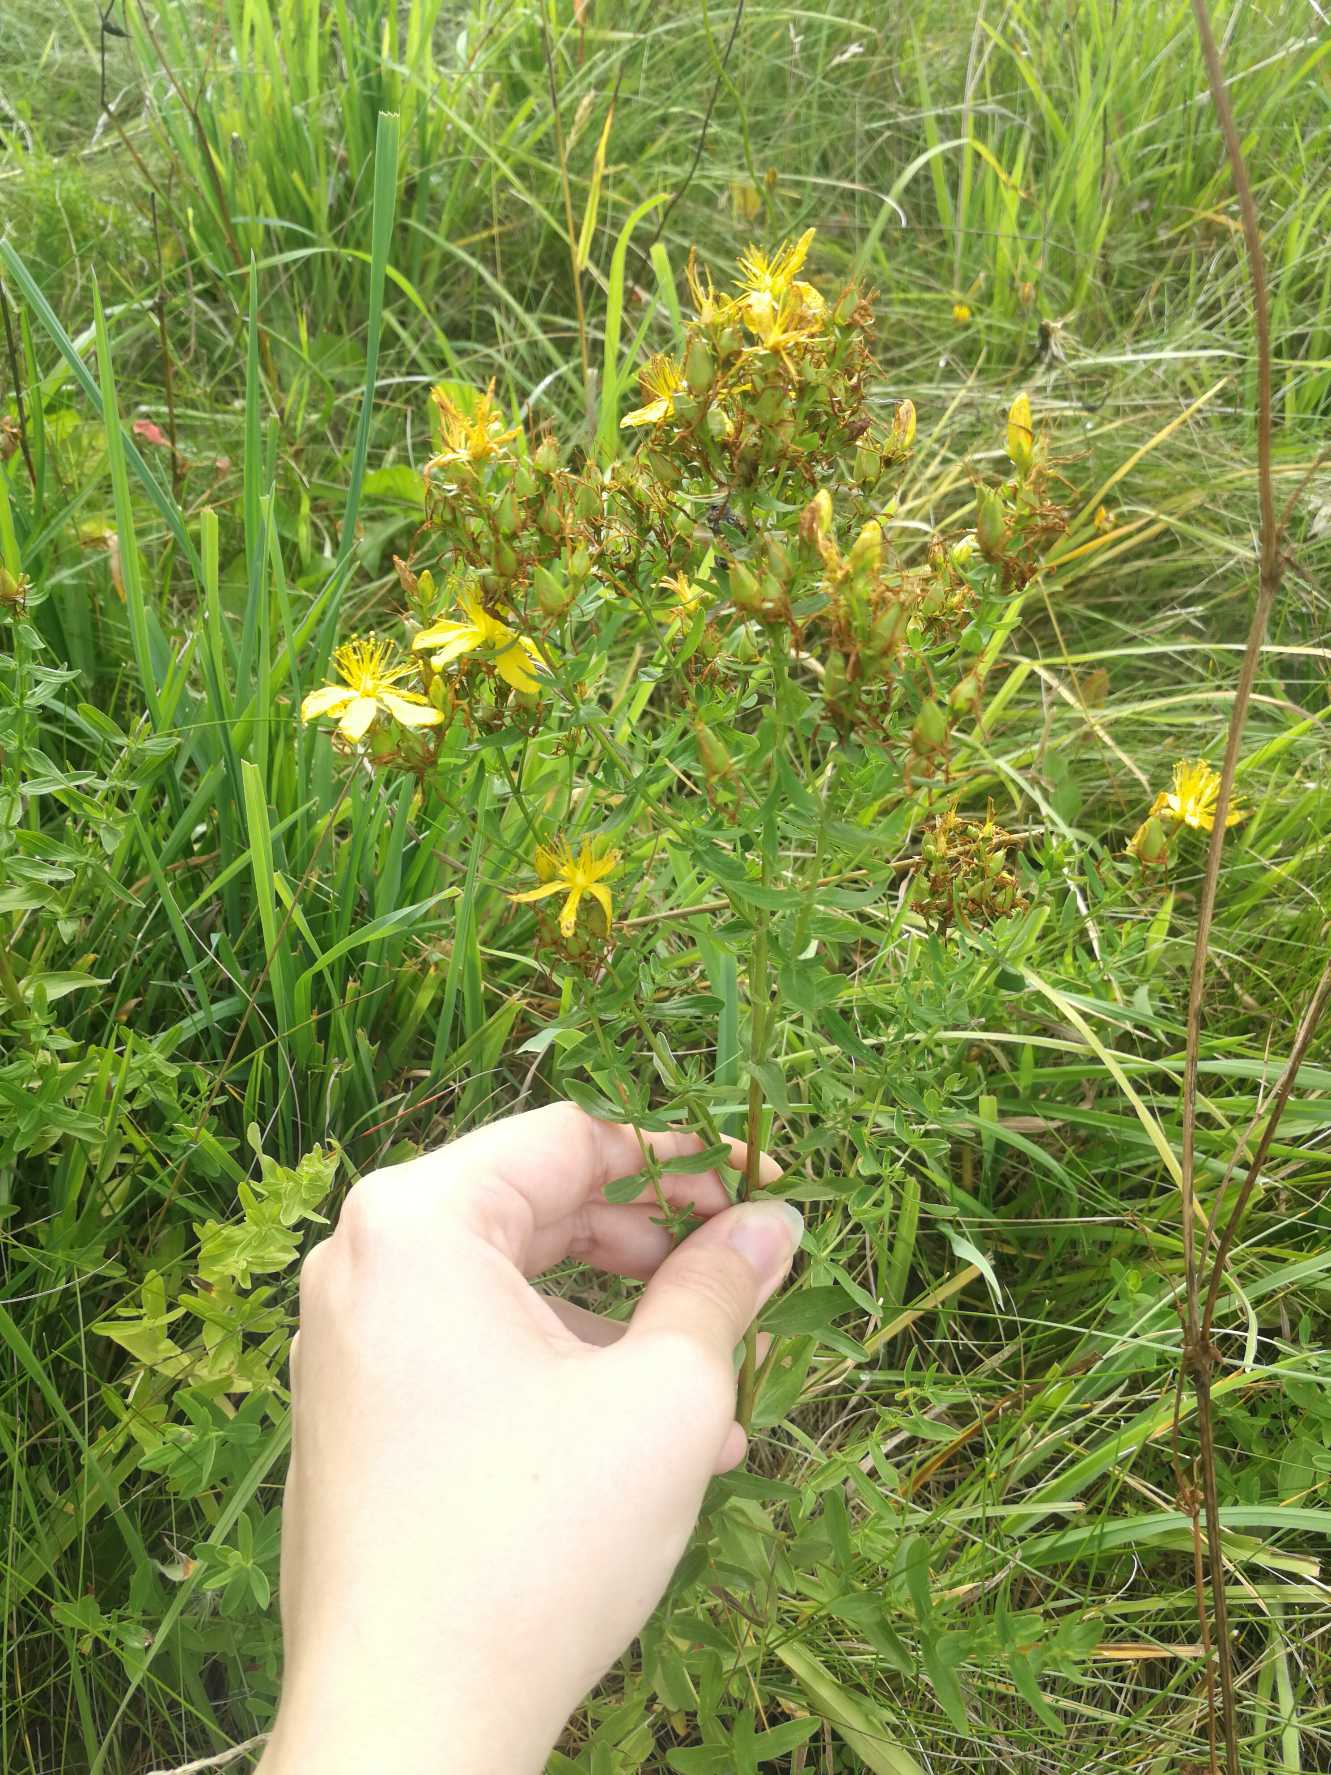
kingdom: Plantae
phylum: Tracheophyta
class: Magnoliopsida
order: Malpighiales
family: Hypericaceae
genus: Hypericum
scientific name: Hypericum perforatum
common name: Prikbladet perikon
